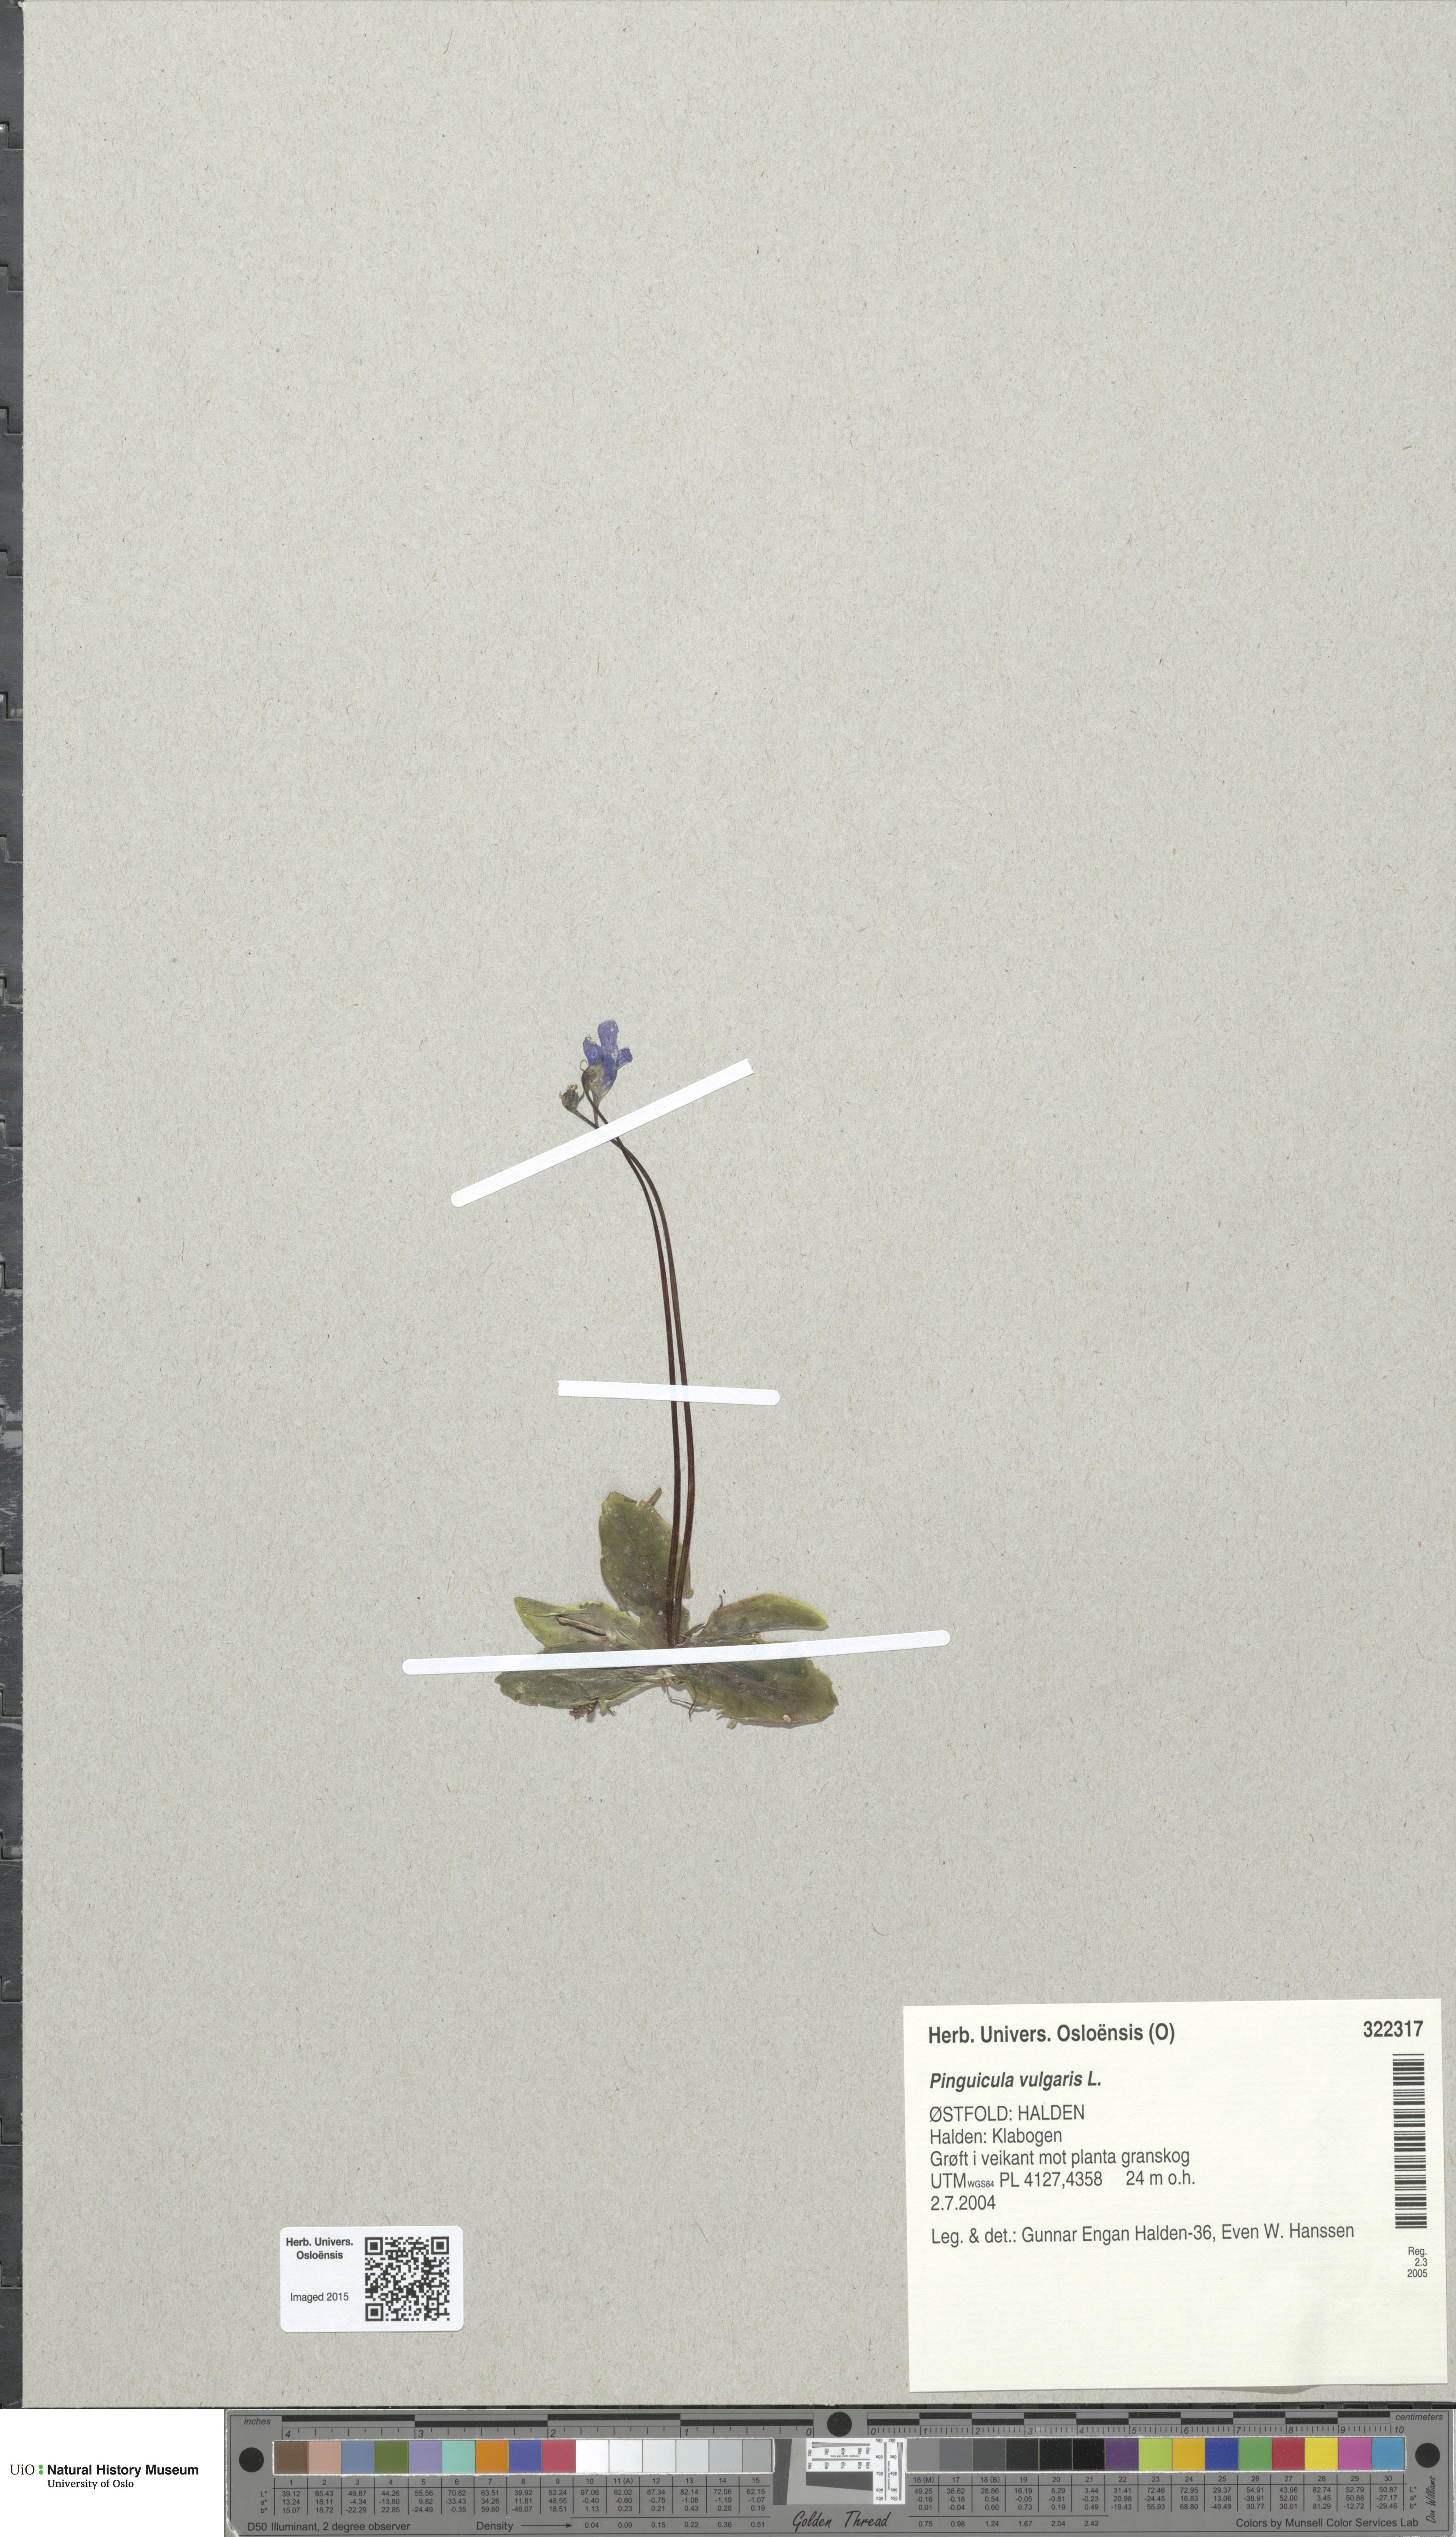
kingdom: Plantae
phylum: Tracheophyta
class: Magnoliopsida
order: Lamiales
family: Lentibulariaceae
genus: Pinguicula
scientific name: Pinguicula vulgaris
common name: Common butterwort
